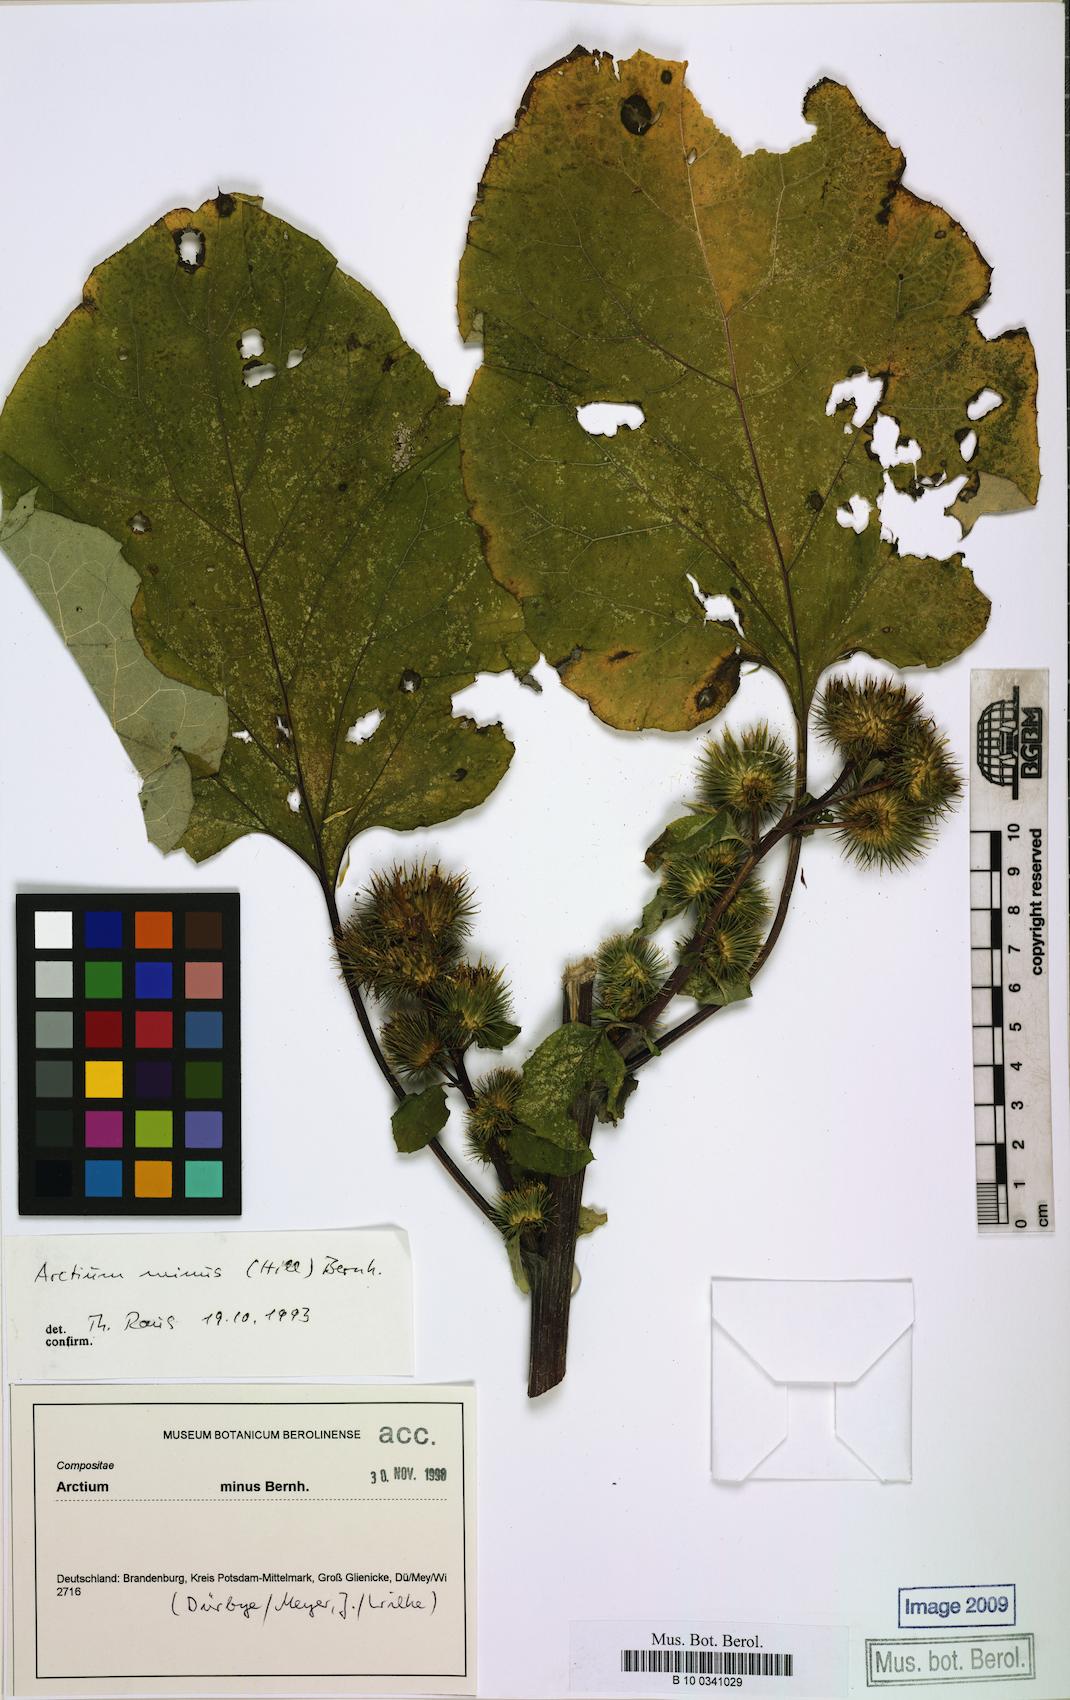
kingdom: Plantae
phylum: Tracheophyta
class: Magnoliopsida
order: Asterales
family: Asteraceae
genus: Arctium
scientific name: Arctium minus
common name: Lesser burdock
